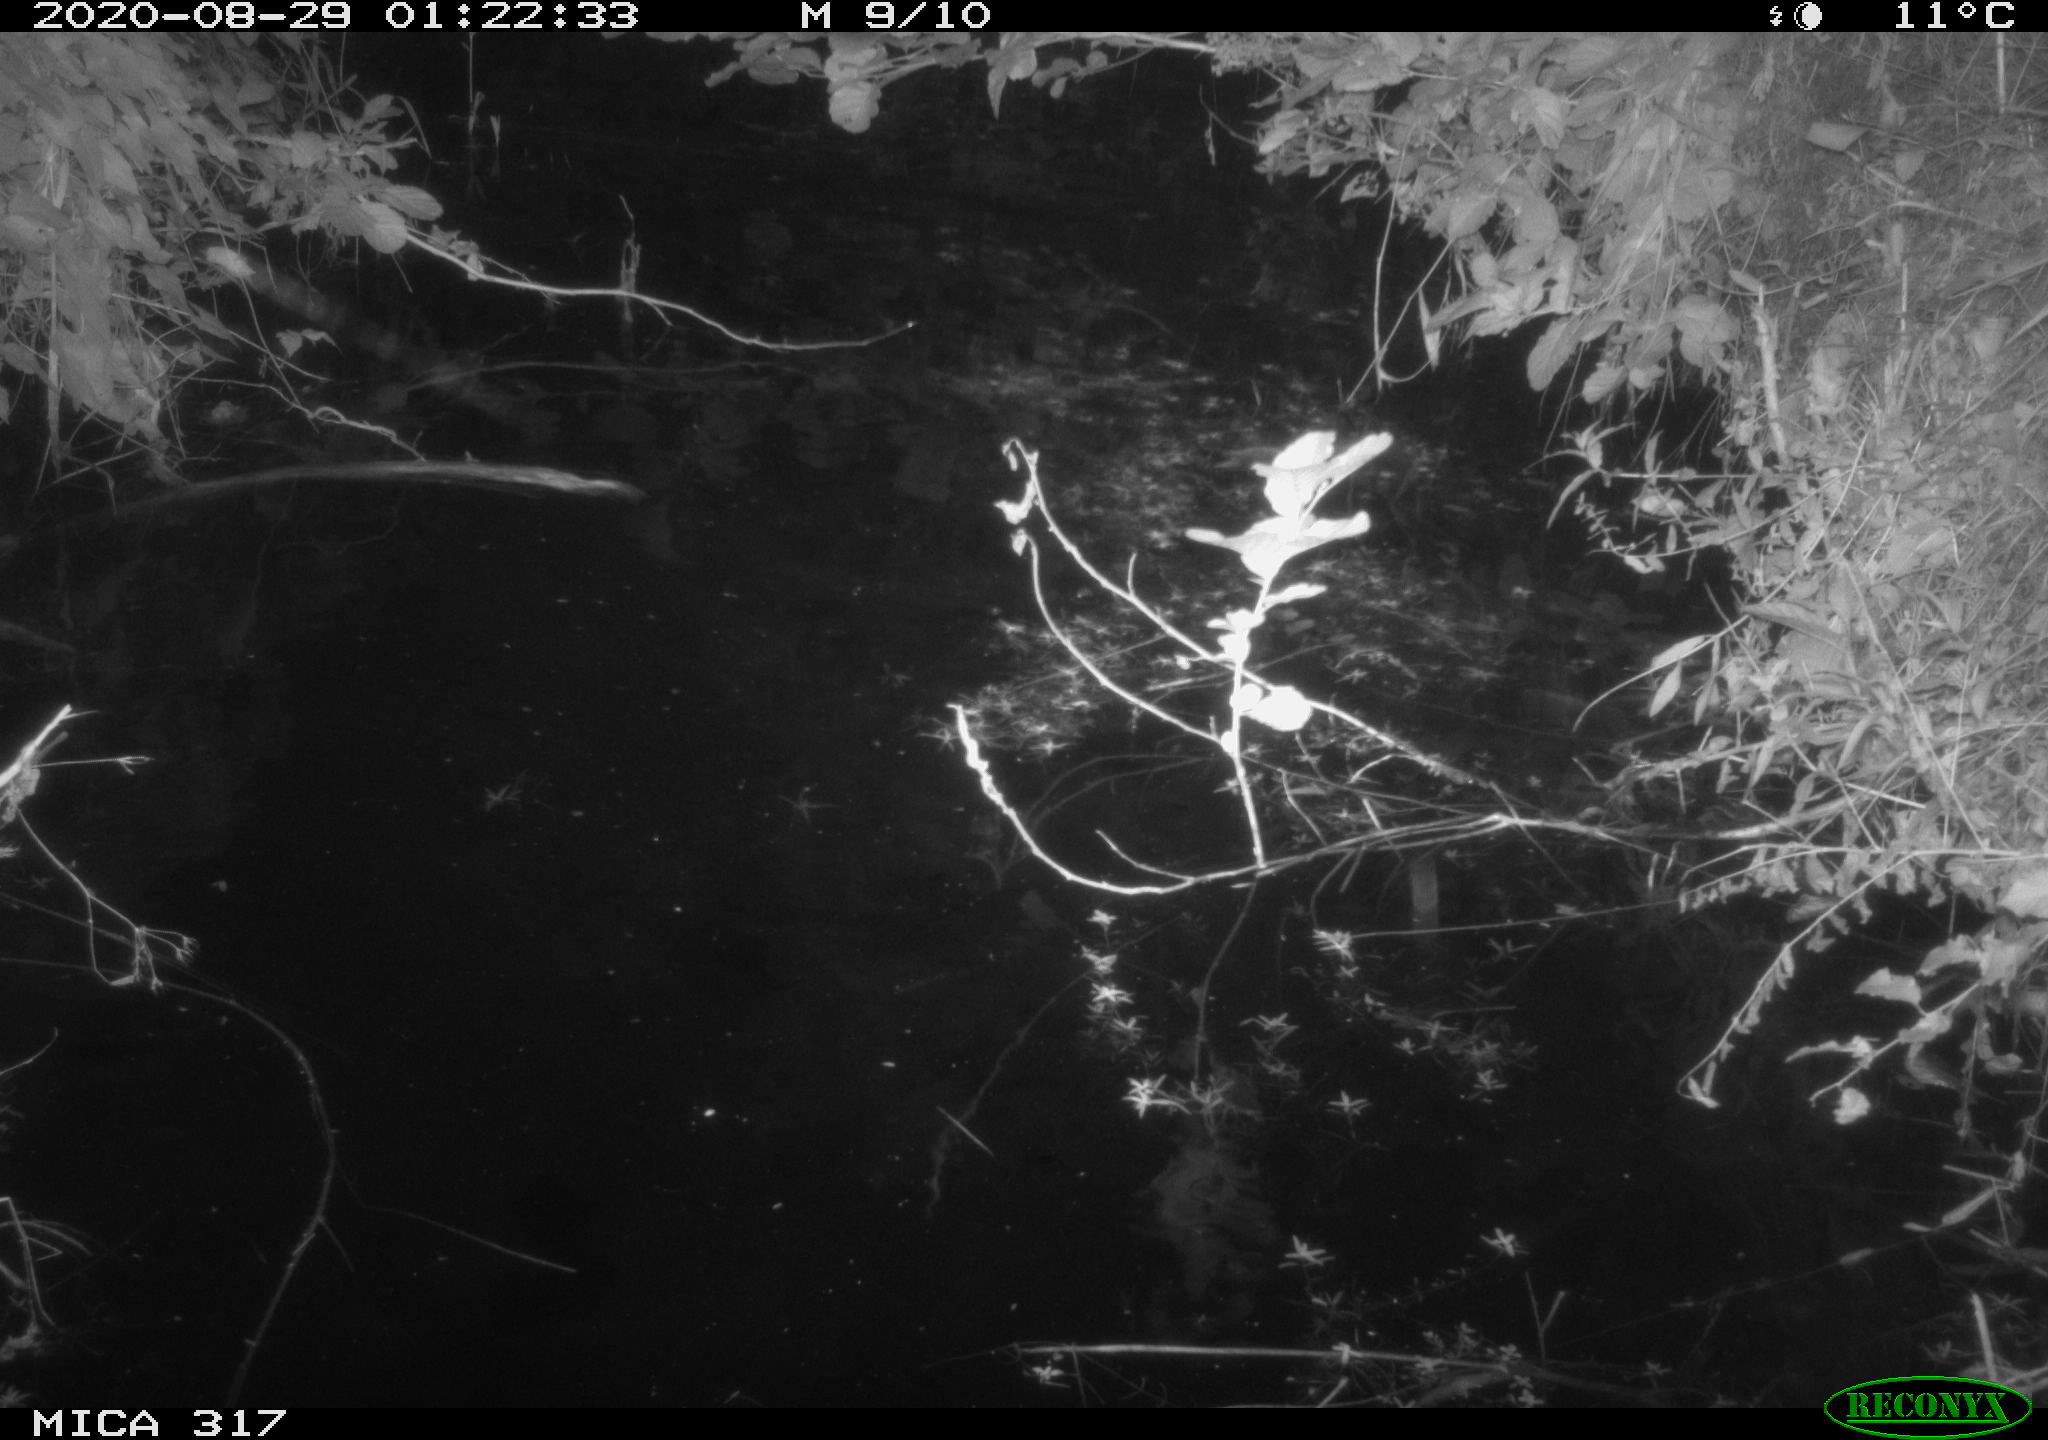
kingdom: Animalia
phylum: Chordata
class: Aves
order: Anseriformes
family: Anatidae
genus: Anas
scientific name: Anas platyrhynchos
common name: Mallard
